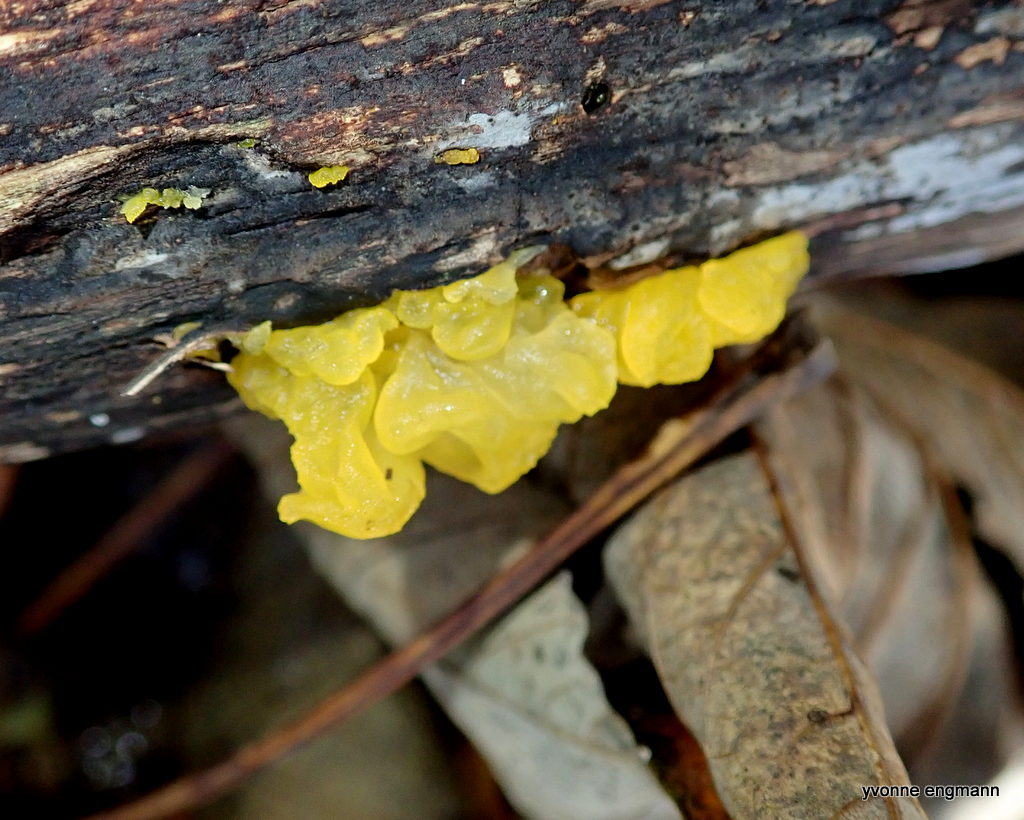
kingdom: Fungi
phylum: Basidiomycota
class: Tremellomycetes
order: Tremellales
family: Tremellaceae
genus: Tremella
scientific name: Tremella mesenterica
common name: gul bævresvamp
